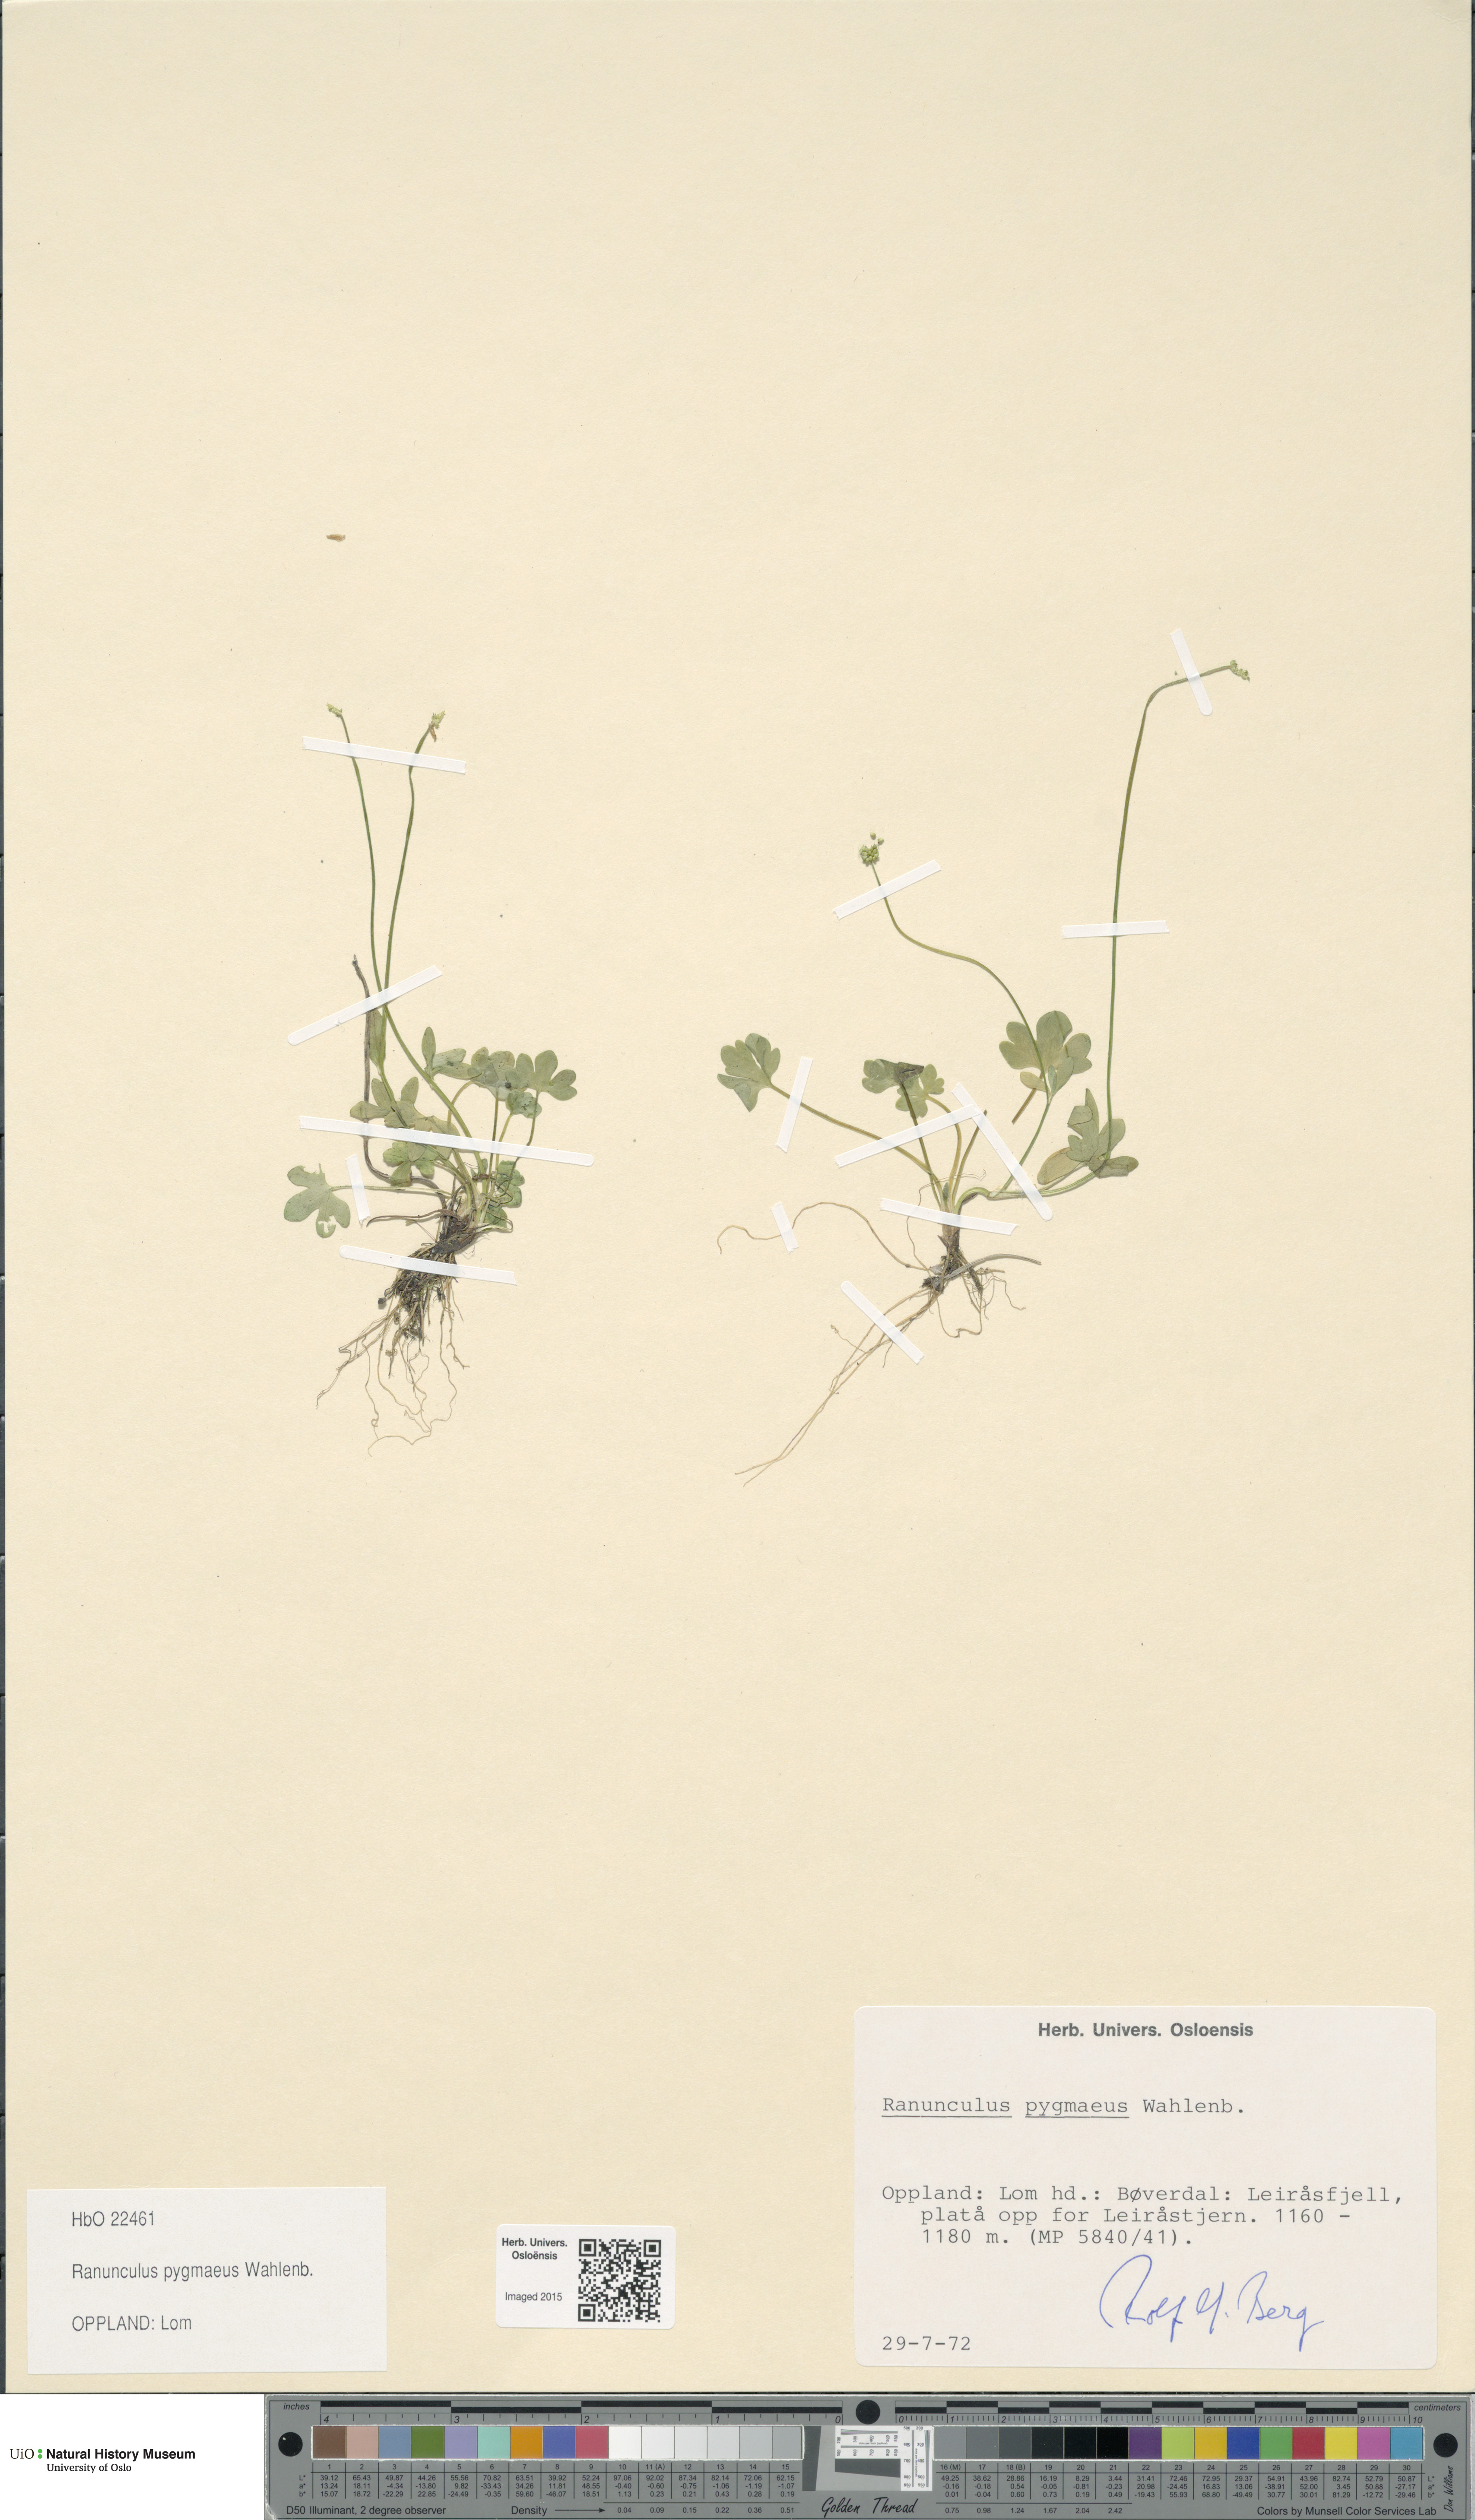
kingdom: Plantae
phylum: Tracheophyta
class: Magnoliopsida
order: Ranunculales
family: Ranunculaceae
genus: Ranunculus
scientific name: Ranunculus pygmaeus
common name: Dwarf buttercup
